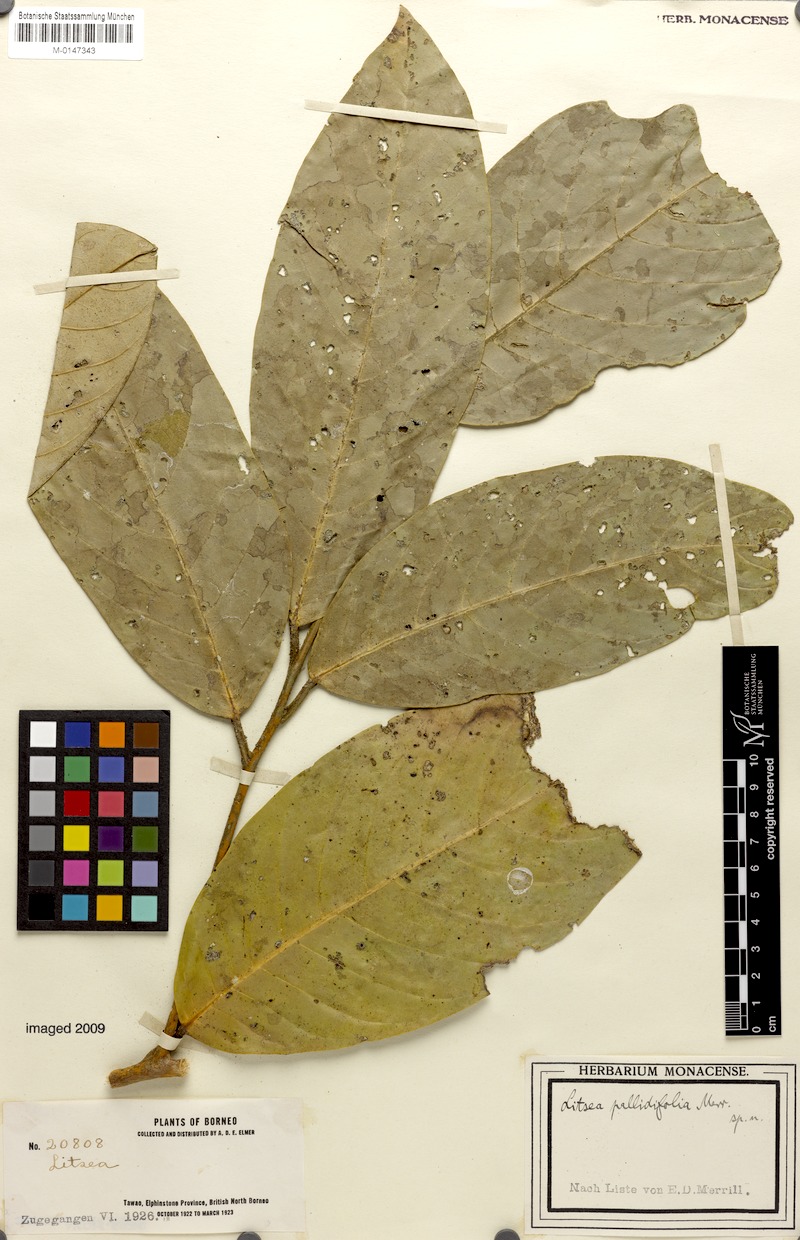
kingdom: Plantae
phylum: Tracheophyta
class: Magnoliopsida
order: Laurales
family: Lauraceae
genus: Litsea
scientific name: Litsea pallidifolia
